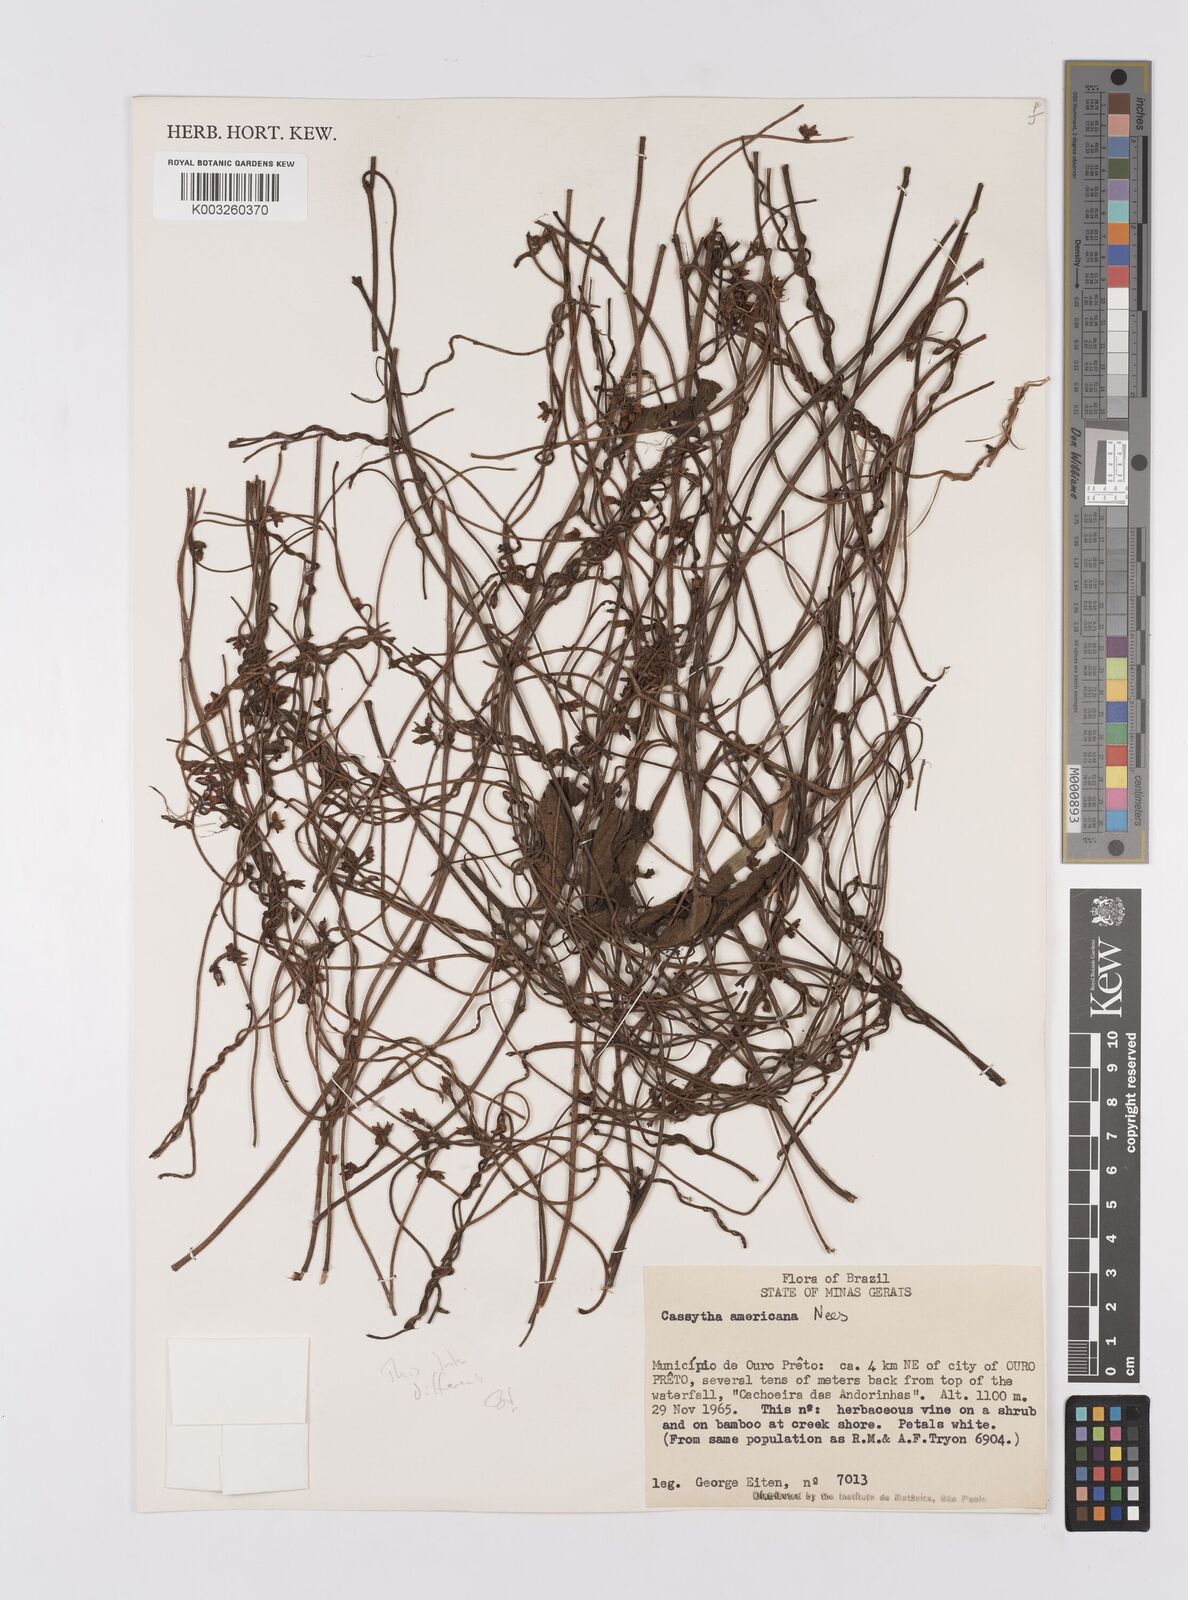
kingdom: Plantae
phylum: Tracheophyta
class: Magnoliopsida
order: Laurales
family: Lauraceae
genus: Cassytha
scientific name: Cassytha filiformis
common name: Dodder-laurel
